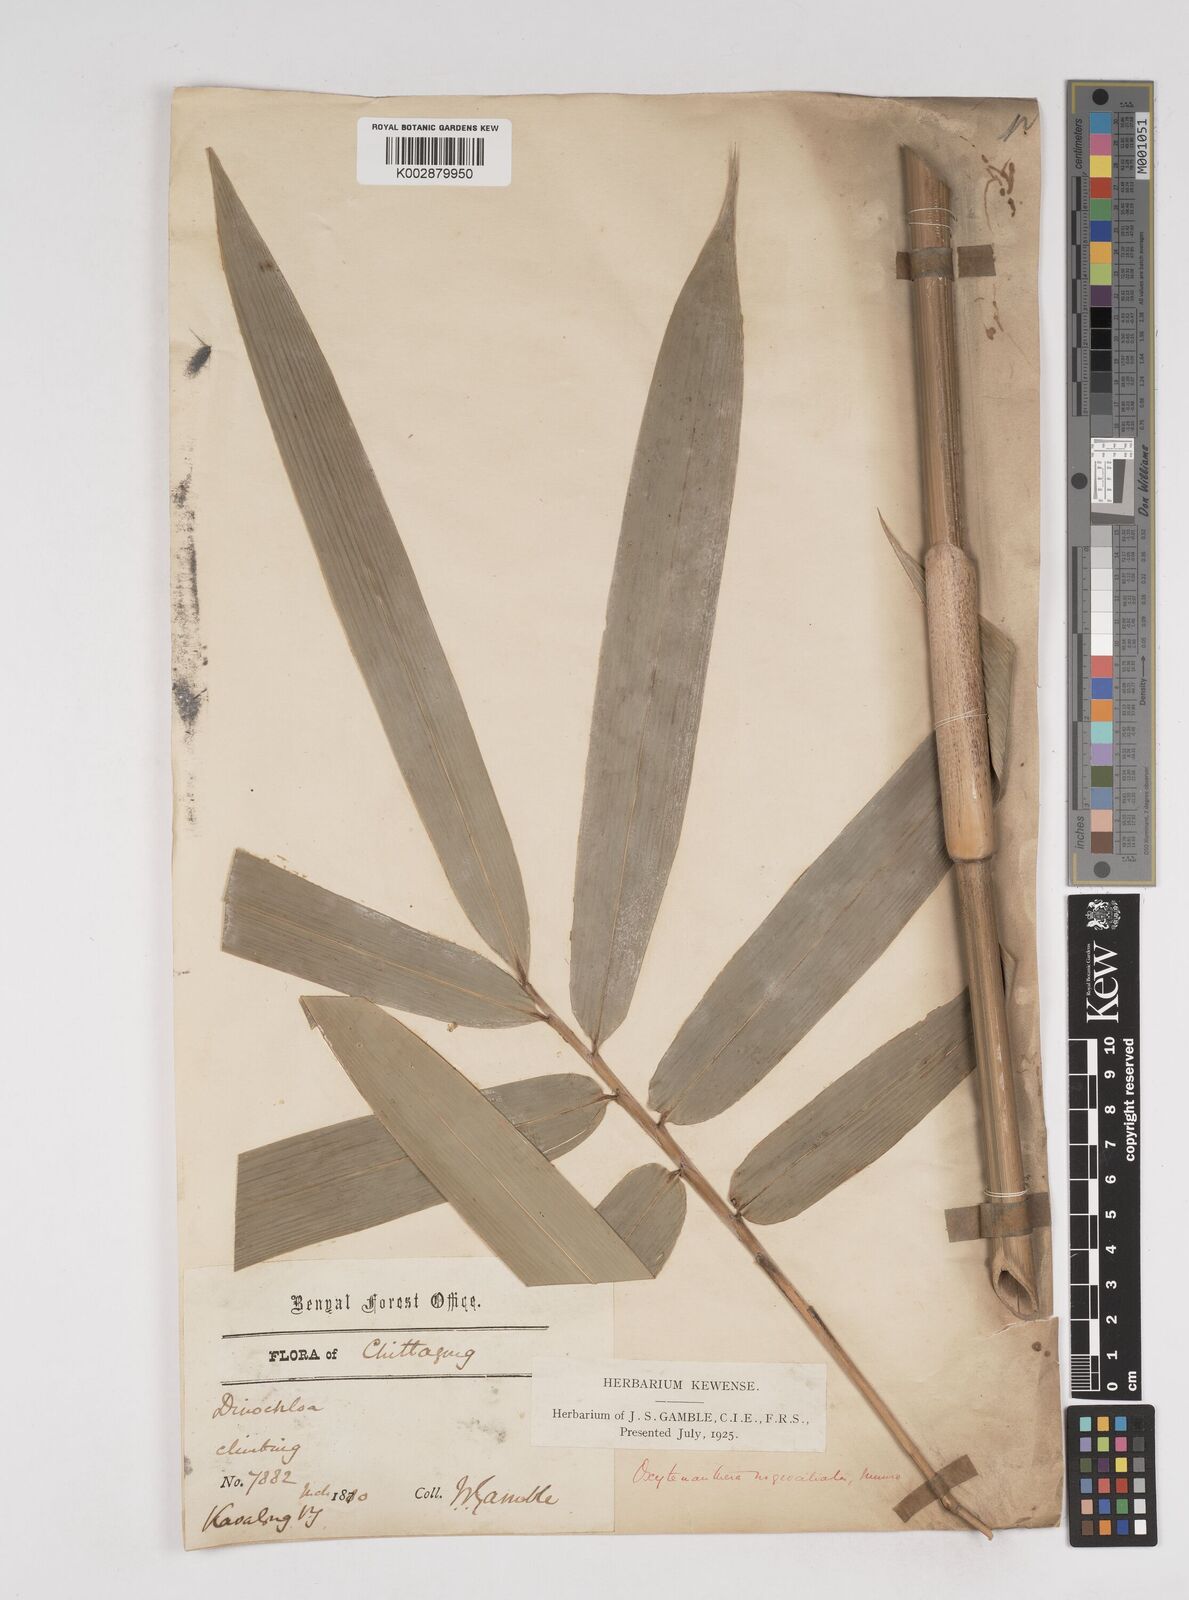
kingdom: Plantae
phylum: Tracheophyta
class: Liliopsida
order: Poales
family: Poaceae
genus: Gigantochloa
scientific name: Gigantochloa nigrociliata
